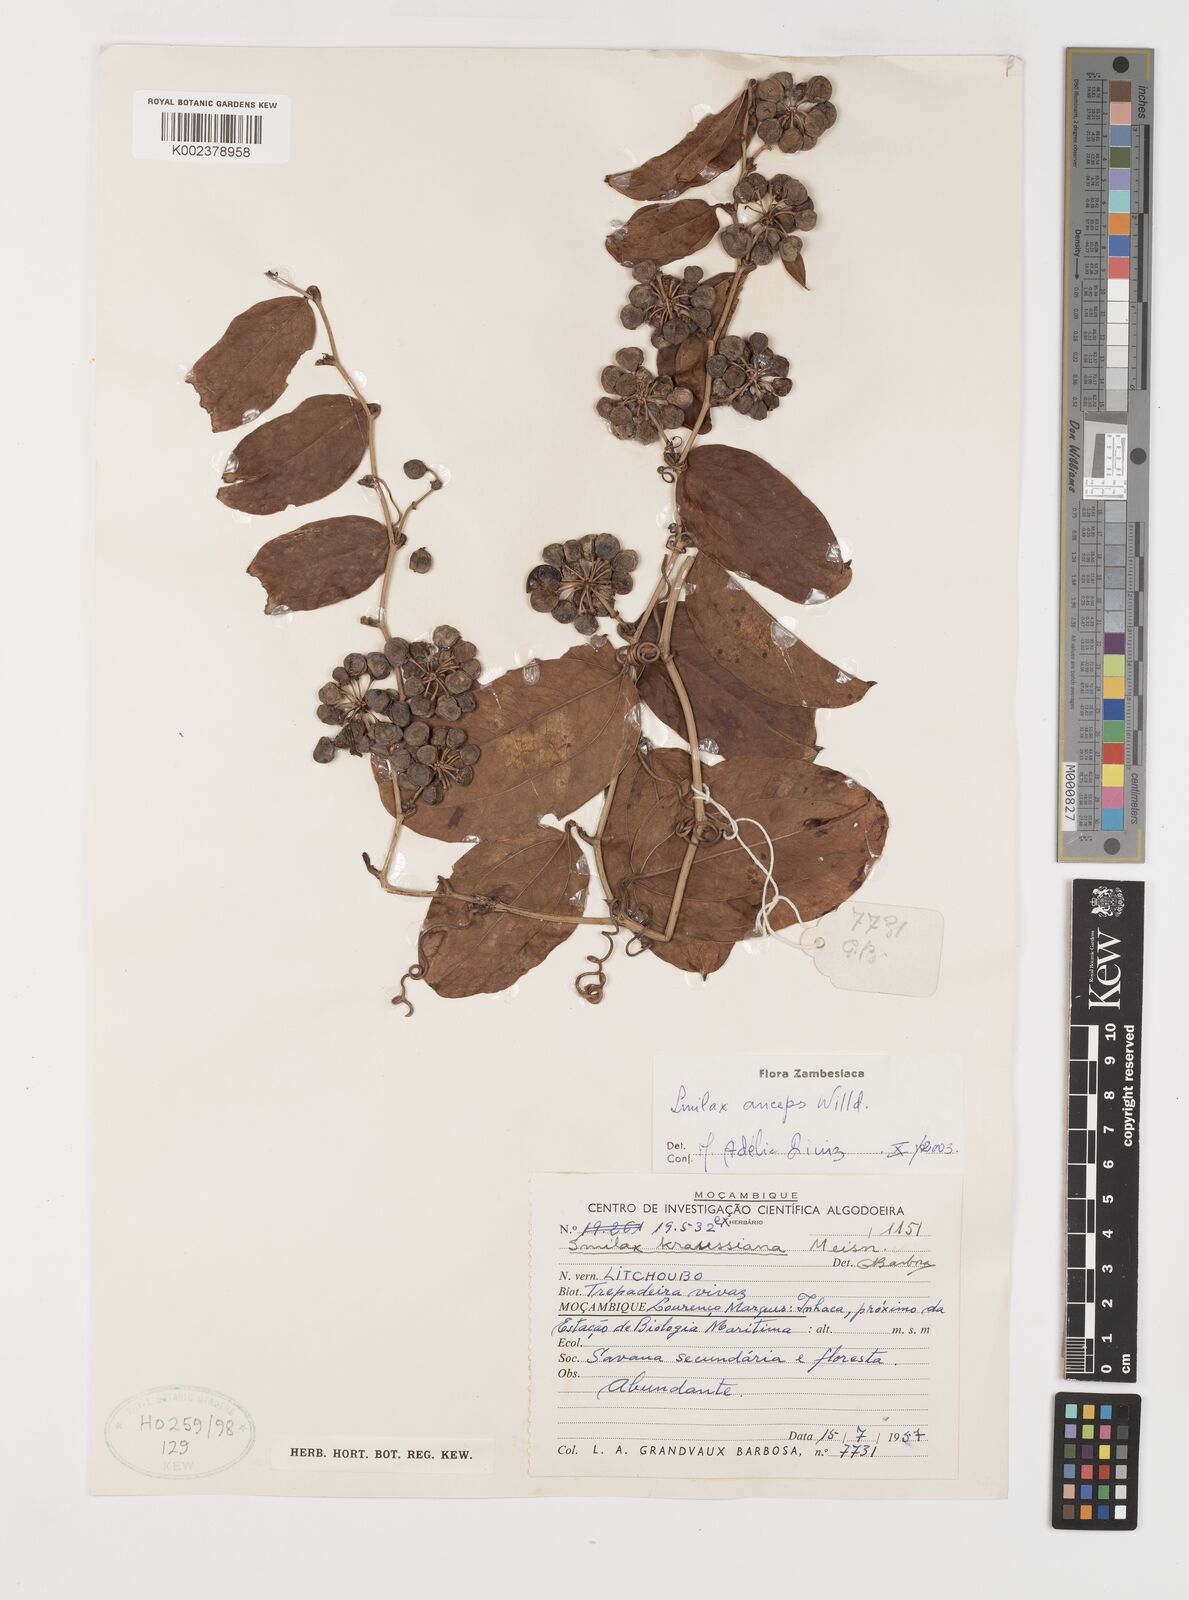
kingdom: Plantae
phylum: Tracheophyta
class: Liliopsida
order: Liliales
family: Smilacaceae
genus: Smilax
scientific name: Smilax anceps
